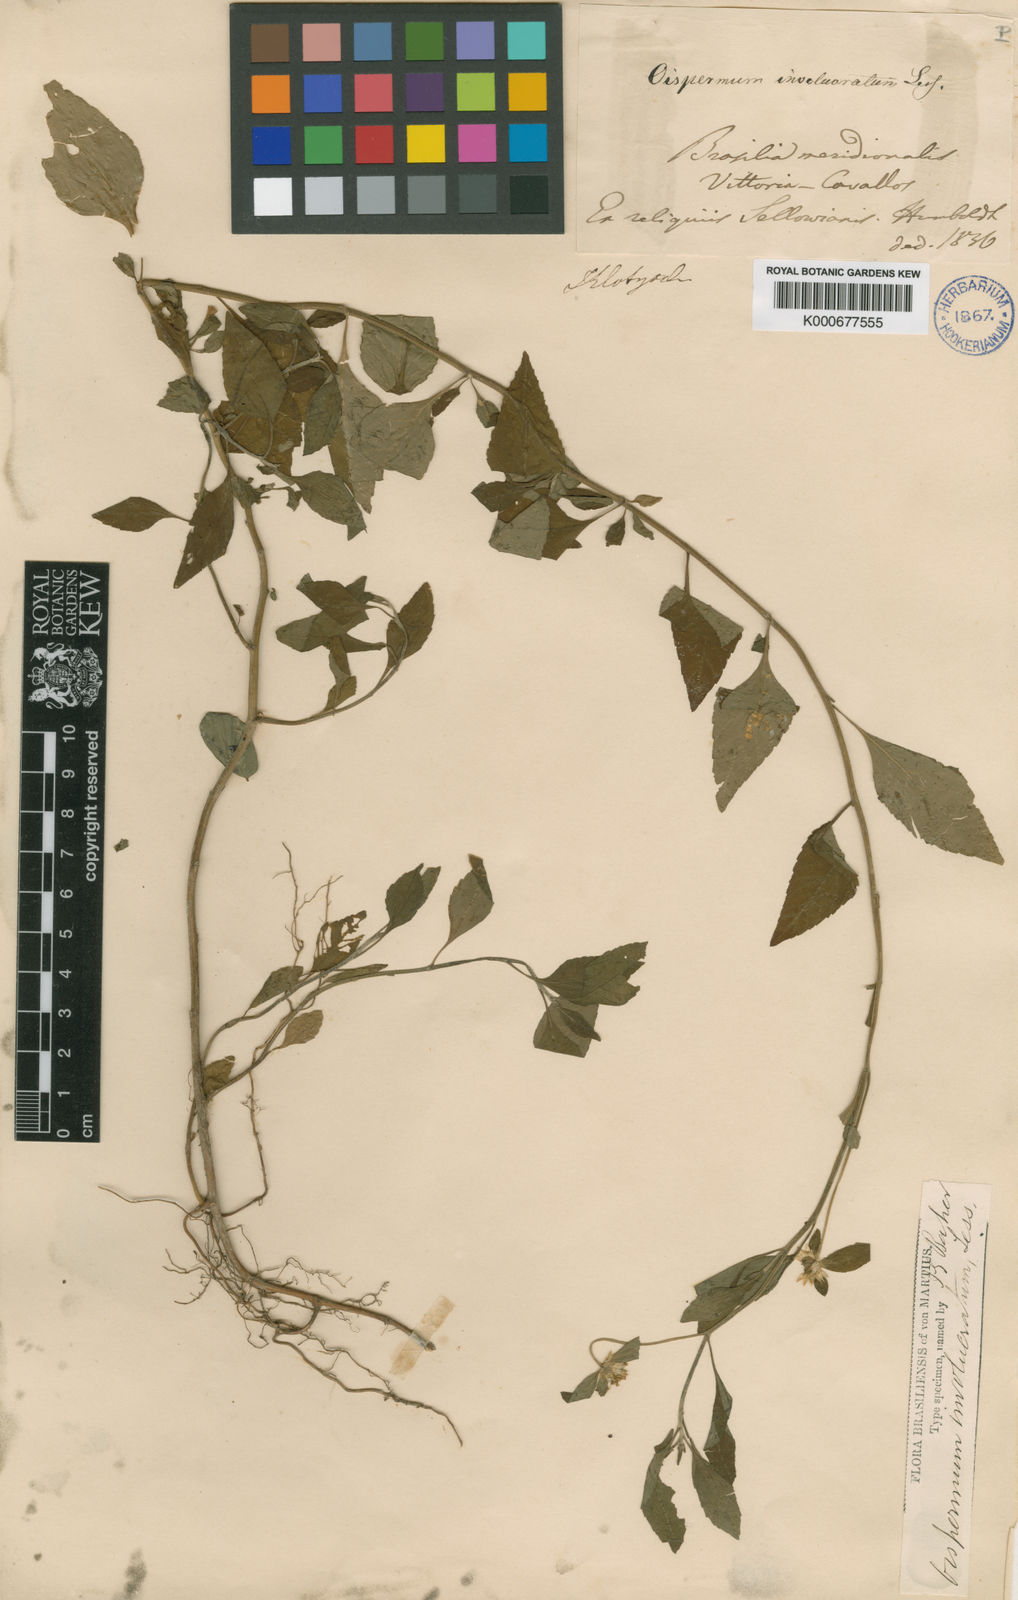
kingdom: Plantae
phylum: Tracheophyta
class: Magnoliopsida
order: Asterales
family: Asteraceae
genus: Centratherum
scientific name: Centratherum repens
